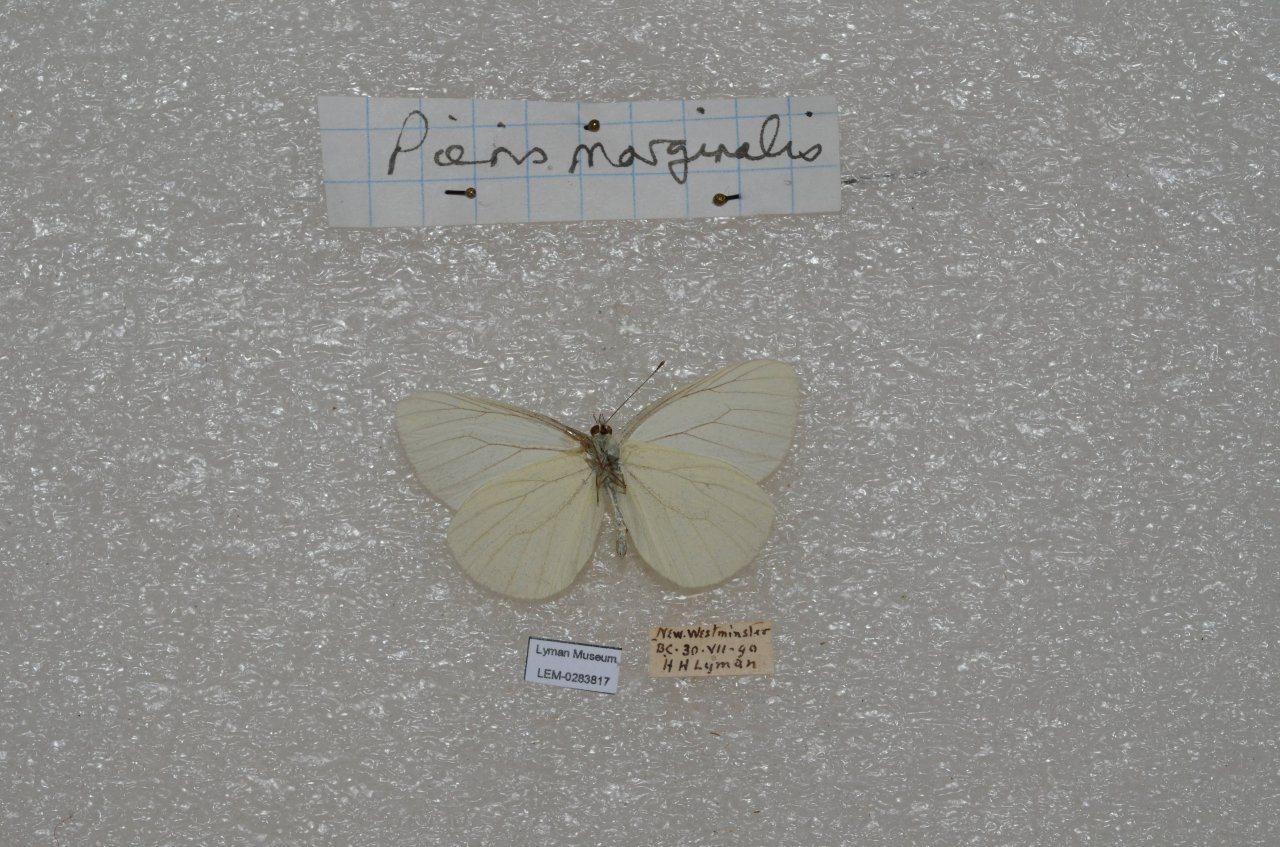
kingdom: Animalia
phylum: Arthropoda
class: Insecta
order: Lepidoptera
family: Pieridae
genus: Pieris
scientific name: Pieris marginalis
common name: Margined White
